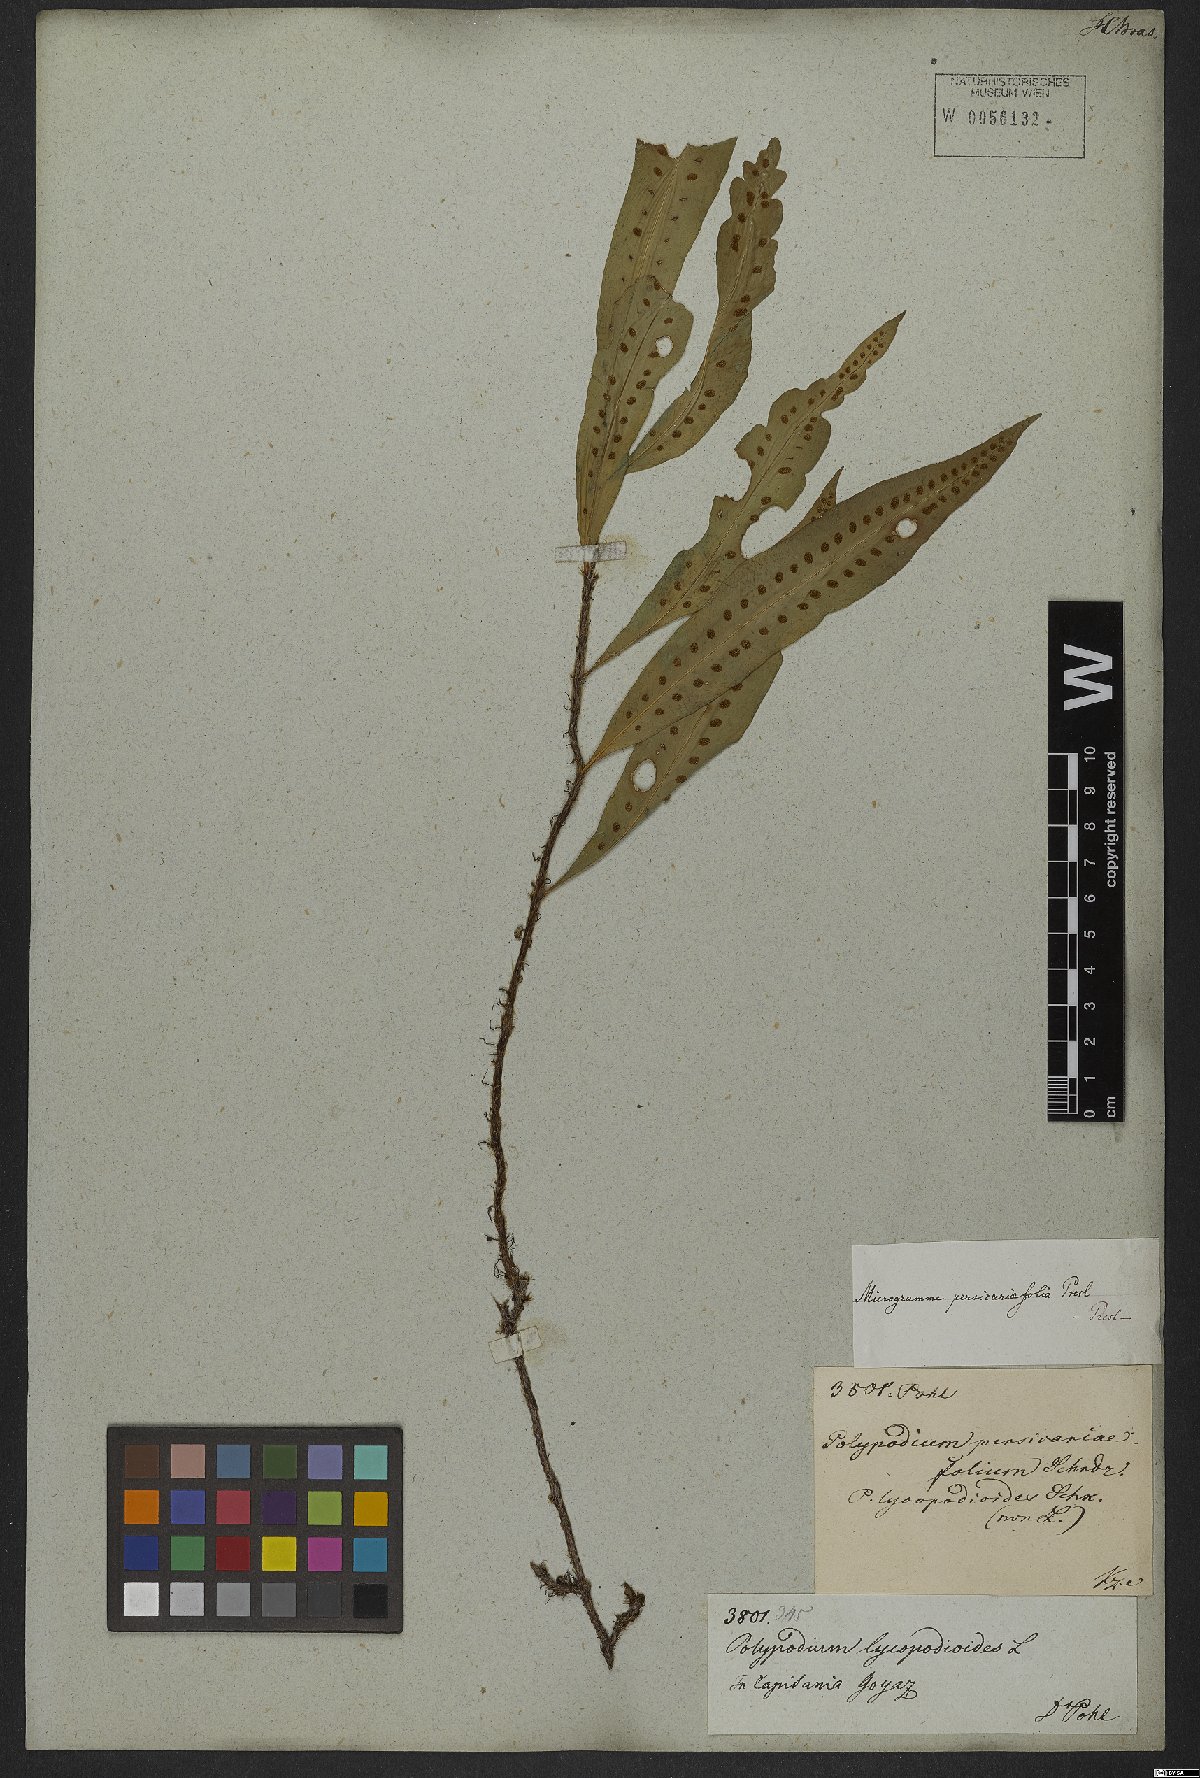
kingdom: Plantae
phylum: Tracheophyta
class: Polypodiopsida
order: Polypodiales
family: Polypodiaceae
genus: Microgramma
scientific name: Microgramma persicariifolia
